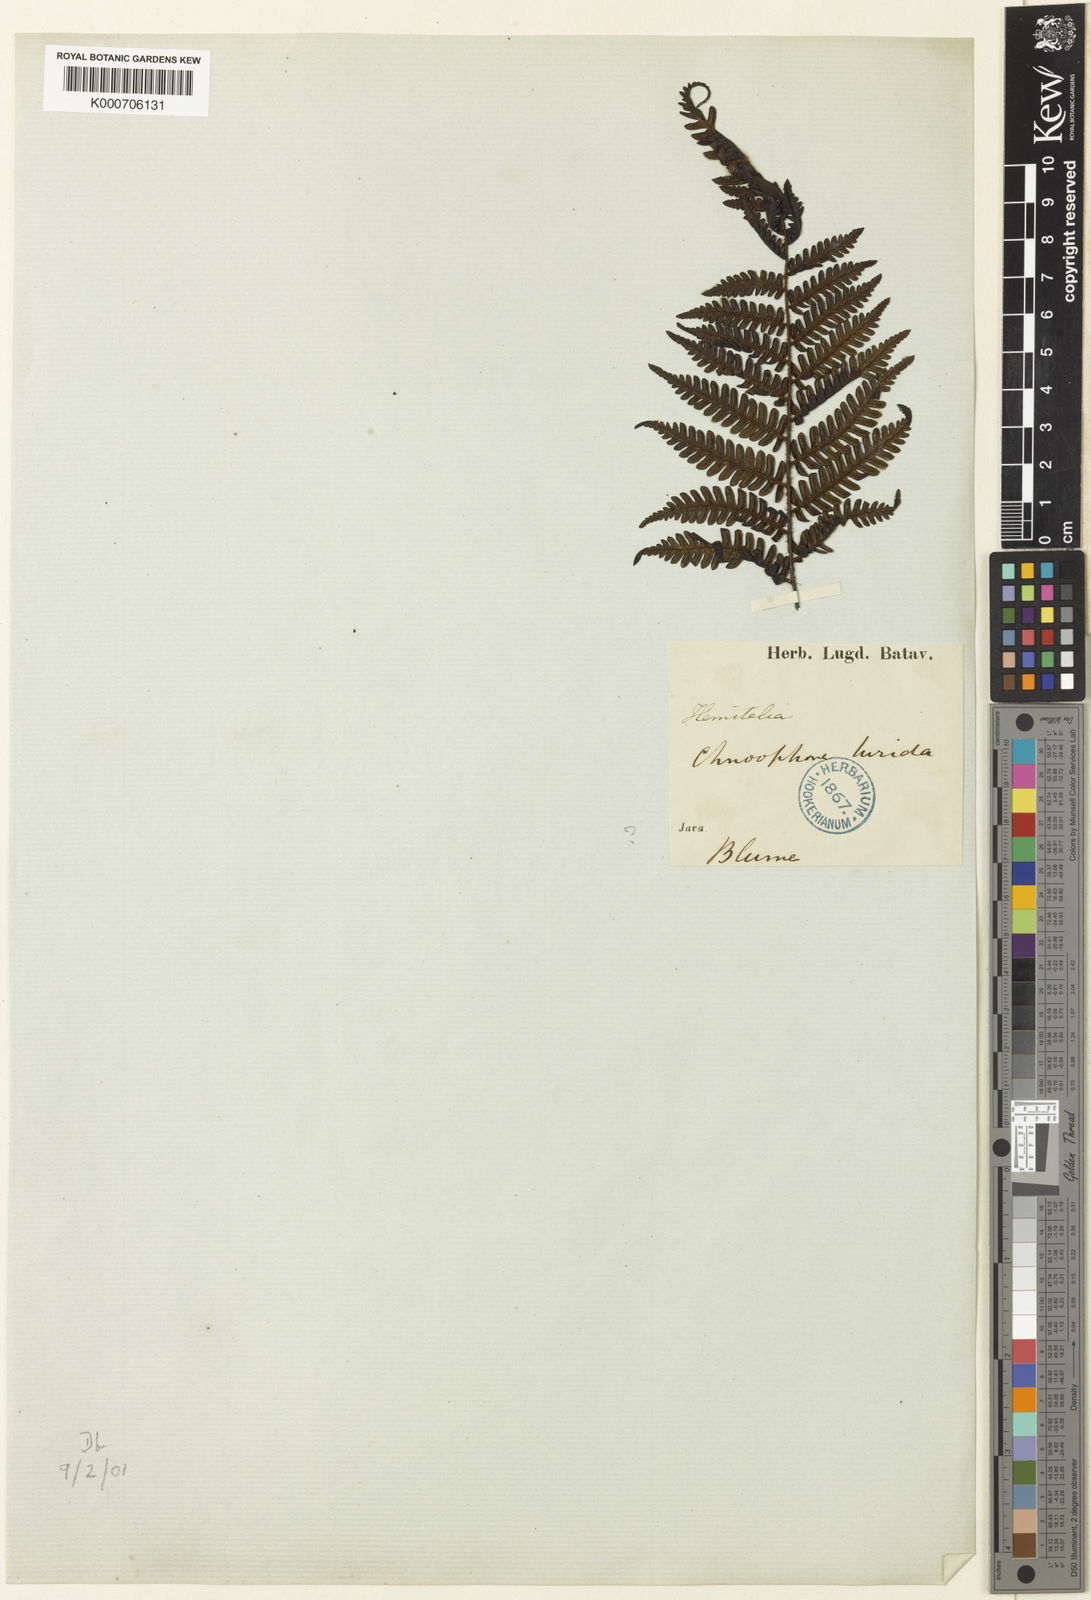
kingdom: Plantae
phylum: Tracheophyta
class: Polypodiopsida
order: Cyatheales
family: Cyatheaceae
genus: Gymnosphaera
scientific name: Gymnosphaera lurida
